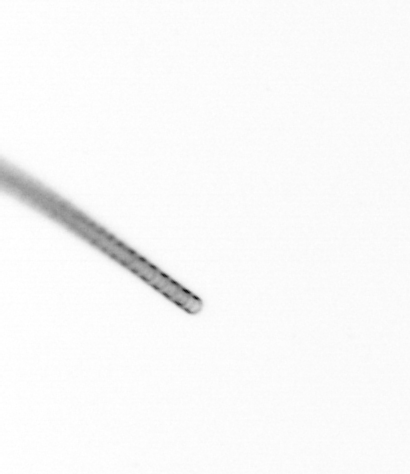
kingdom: Chromista
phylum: Ochrophyta
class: Bacillariophyceae
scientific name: Bacillariophyceae
